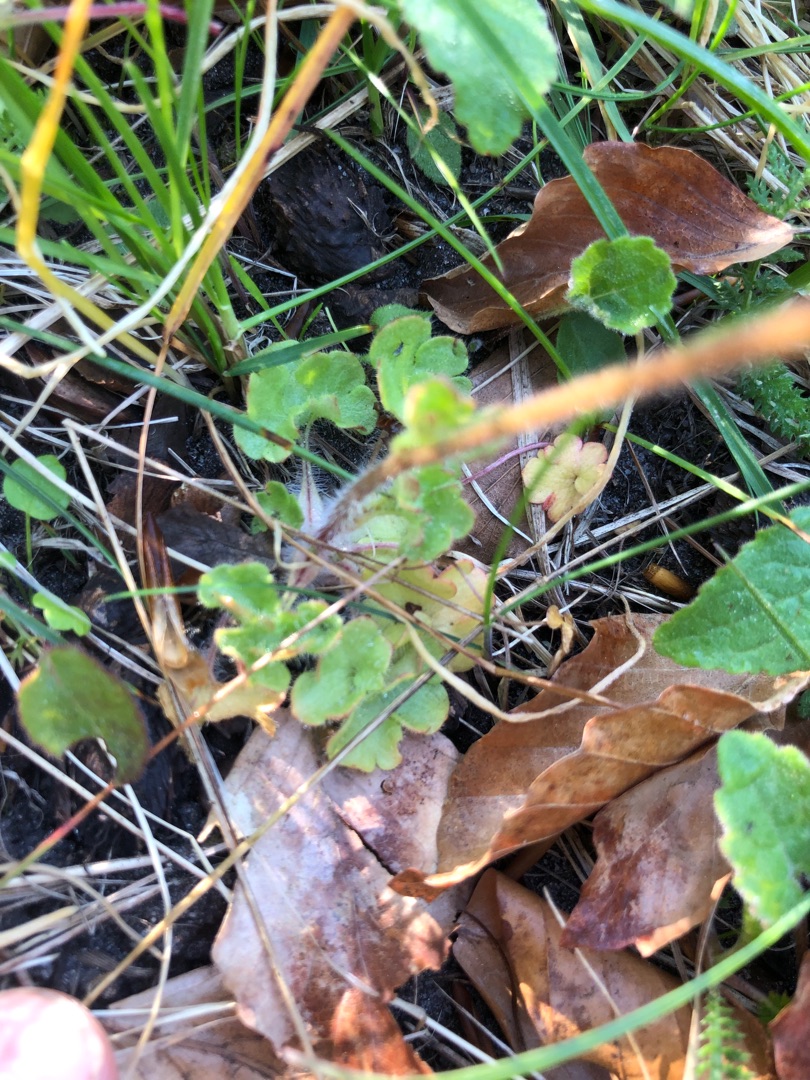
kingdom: Plantae
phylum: Tracheophyta
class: Magnoliopsida
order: Saxifragales
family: Saxifragaceae
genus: Saxifraga
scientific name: Saxifraga granulata
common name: Kornet stenbræk
